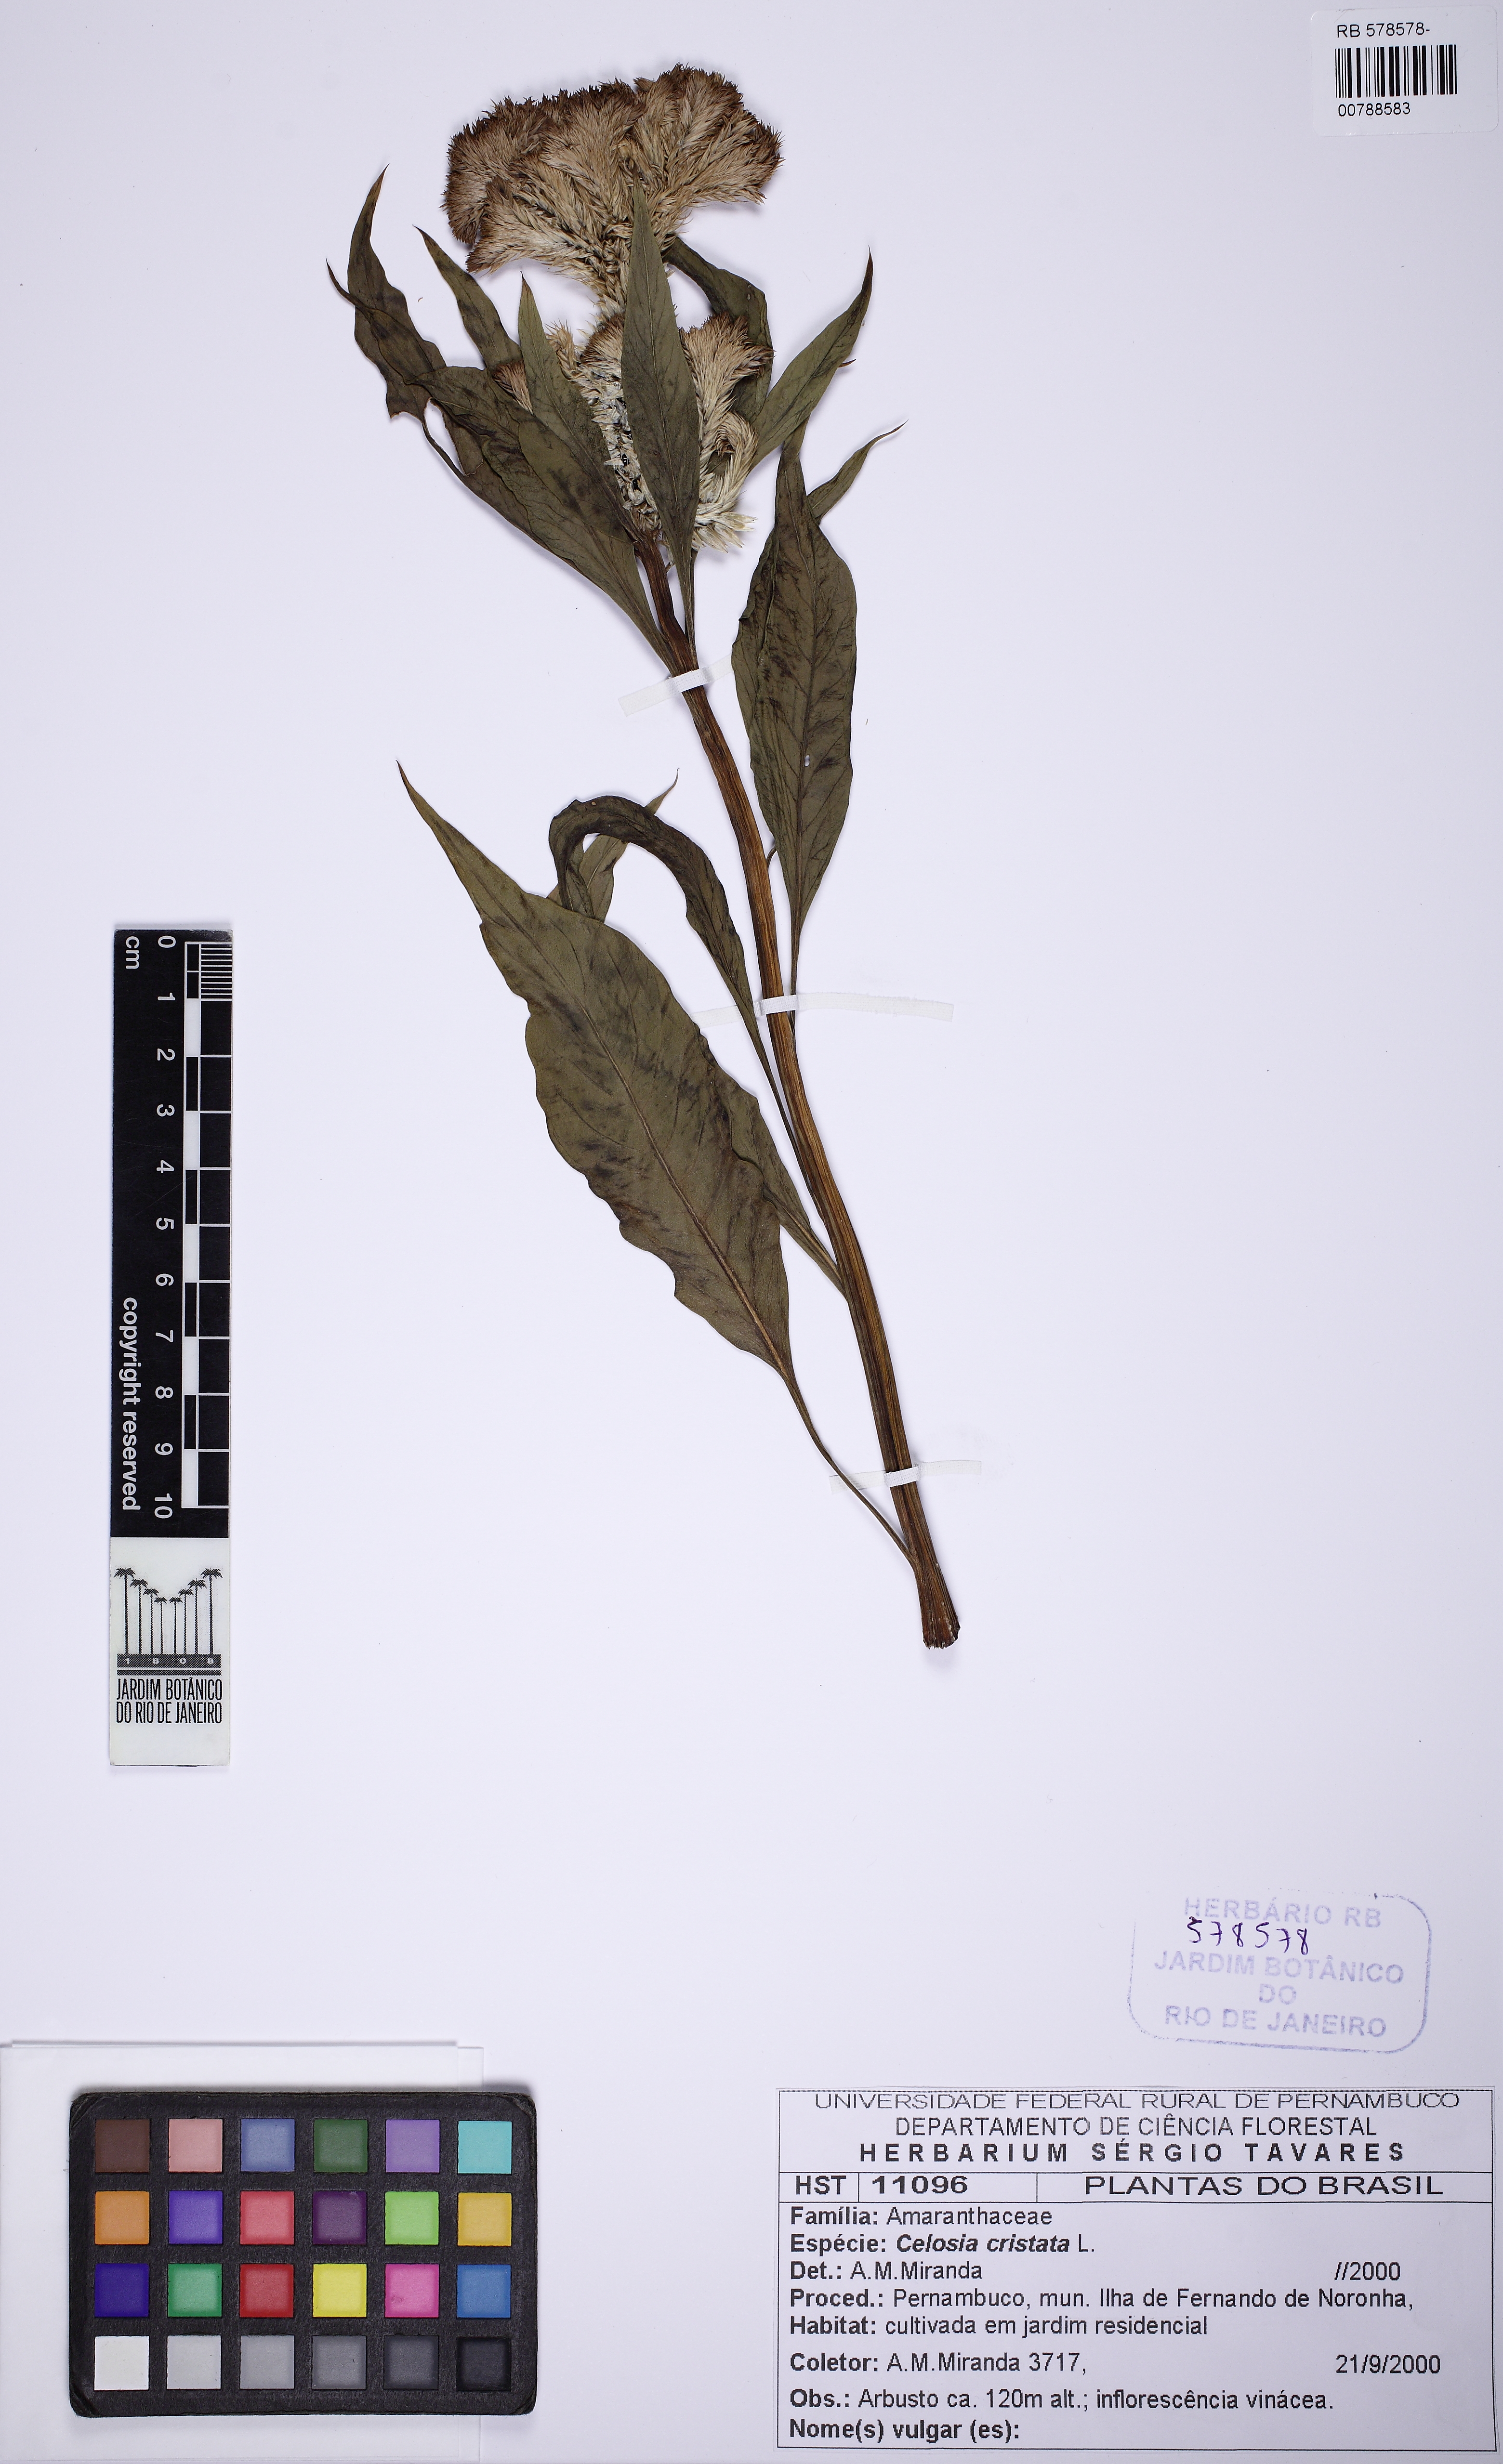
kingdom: Plantae
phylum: Tracheophyta
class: Magnoliopsida
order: Caryophyllales
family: Amaranthaceae
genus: Celosia
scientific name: Celosia argentea
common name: Feather cockscomb
